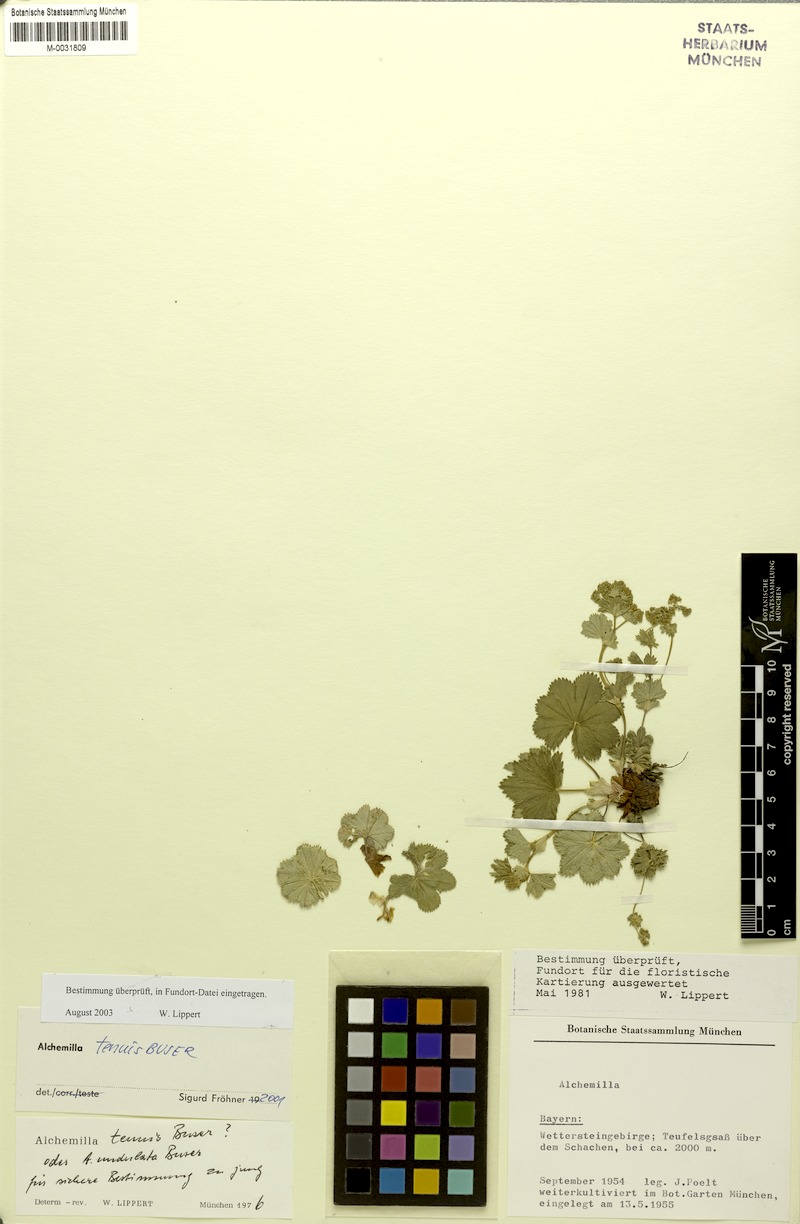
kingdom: Plantae
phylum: Tracheophyta
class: Magnoliopsida
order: Rosales
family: Rosaceae
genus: Alchemilla
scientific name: Alchemilla tenuis
